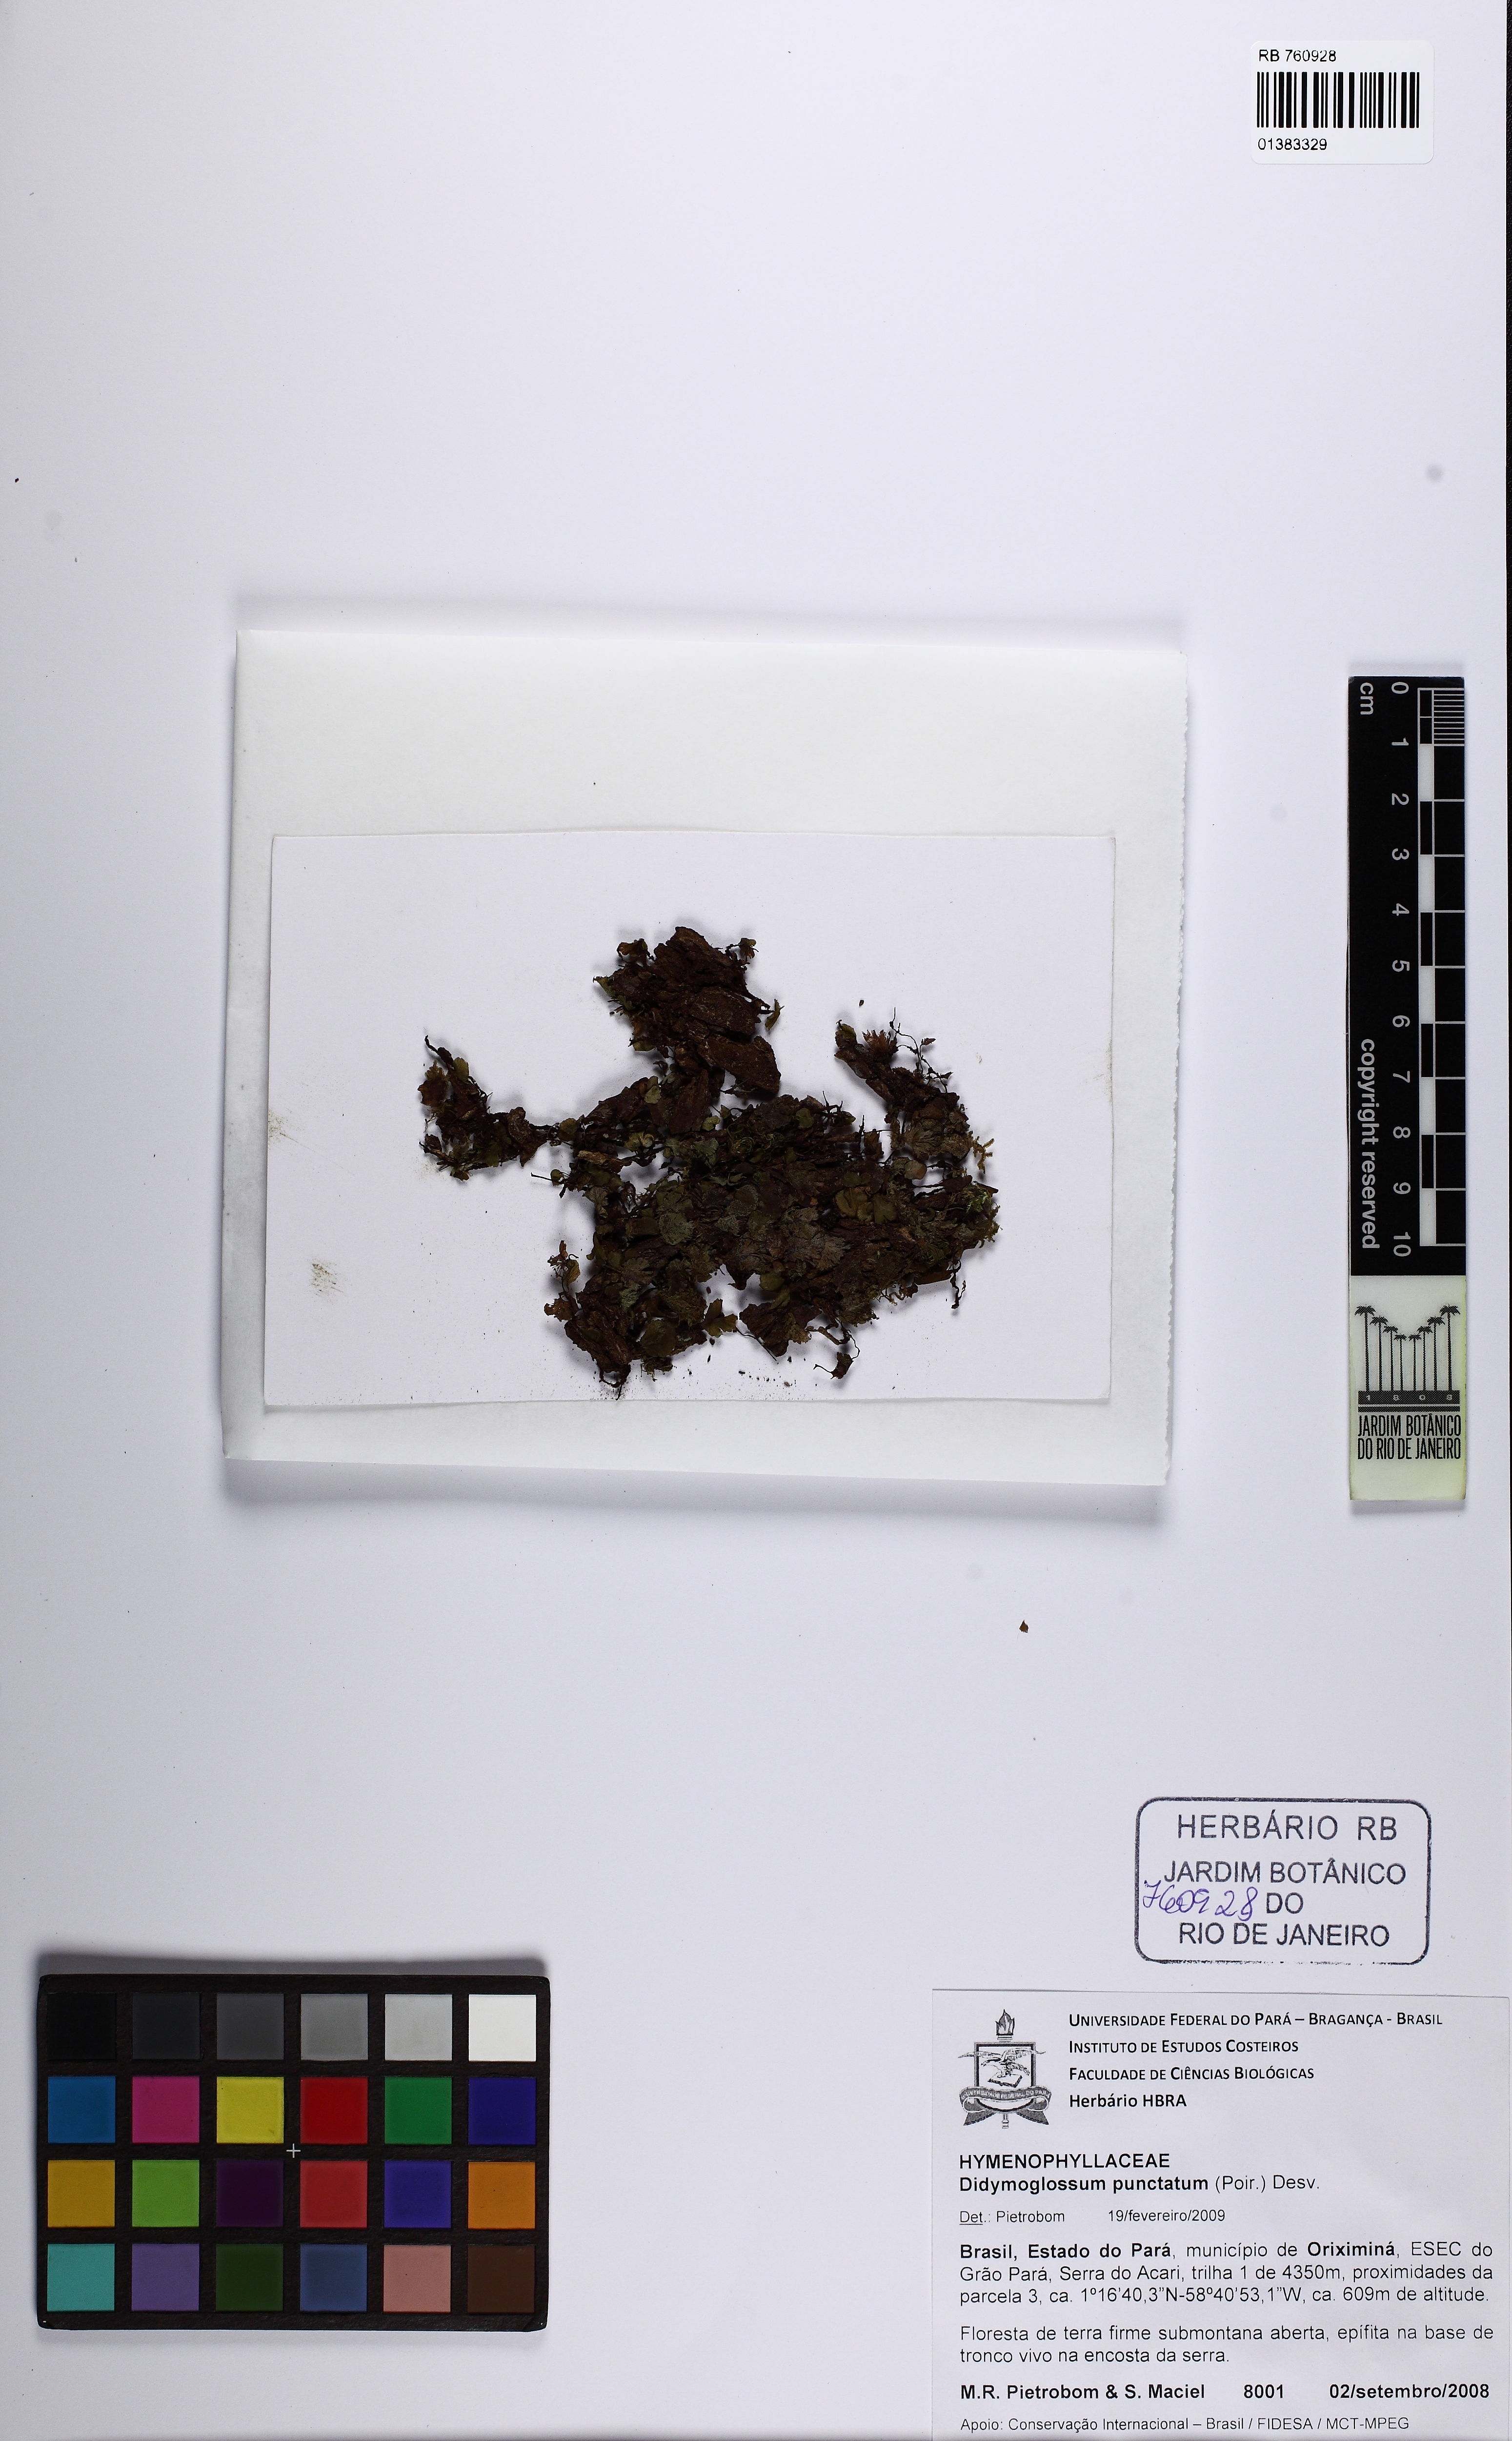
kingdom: Plantae
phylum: Tracheophyta
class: Polypodiopsida
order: Hymenophyllales
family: Hymenophyllaceae
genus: Didymoglossum
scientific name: Didymoglossum punctatum
